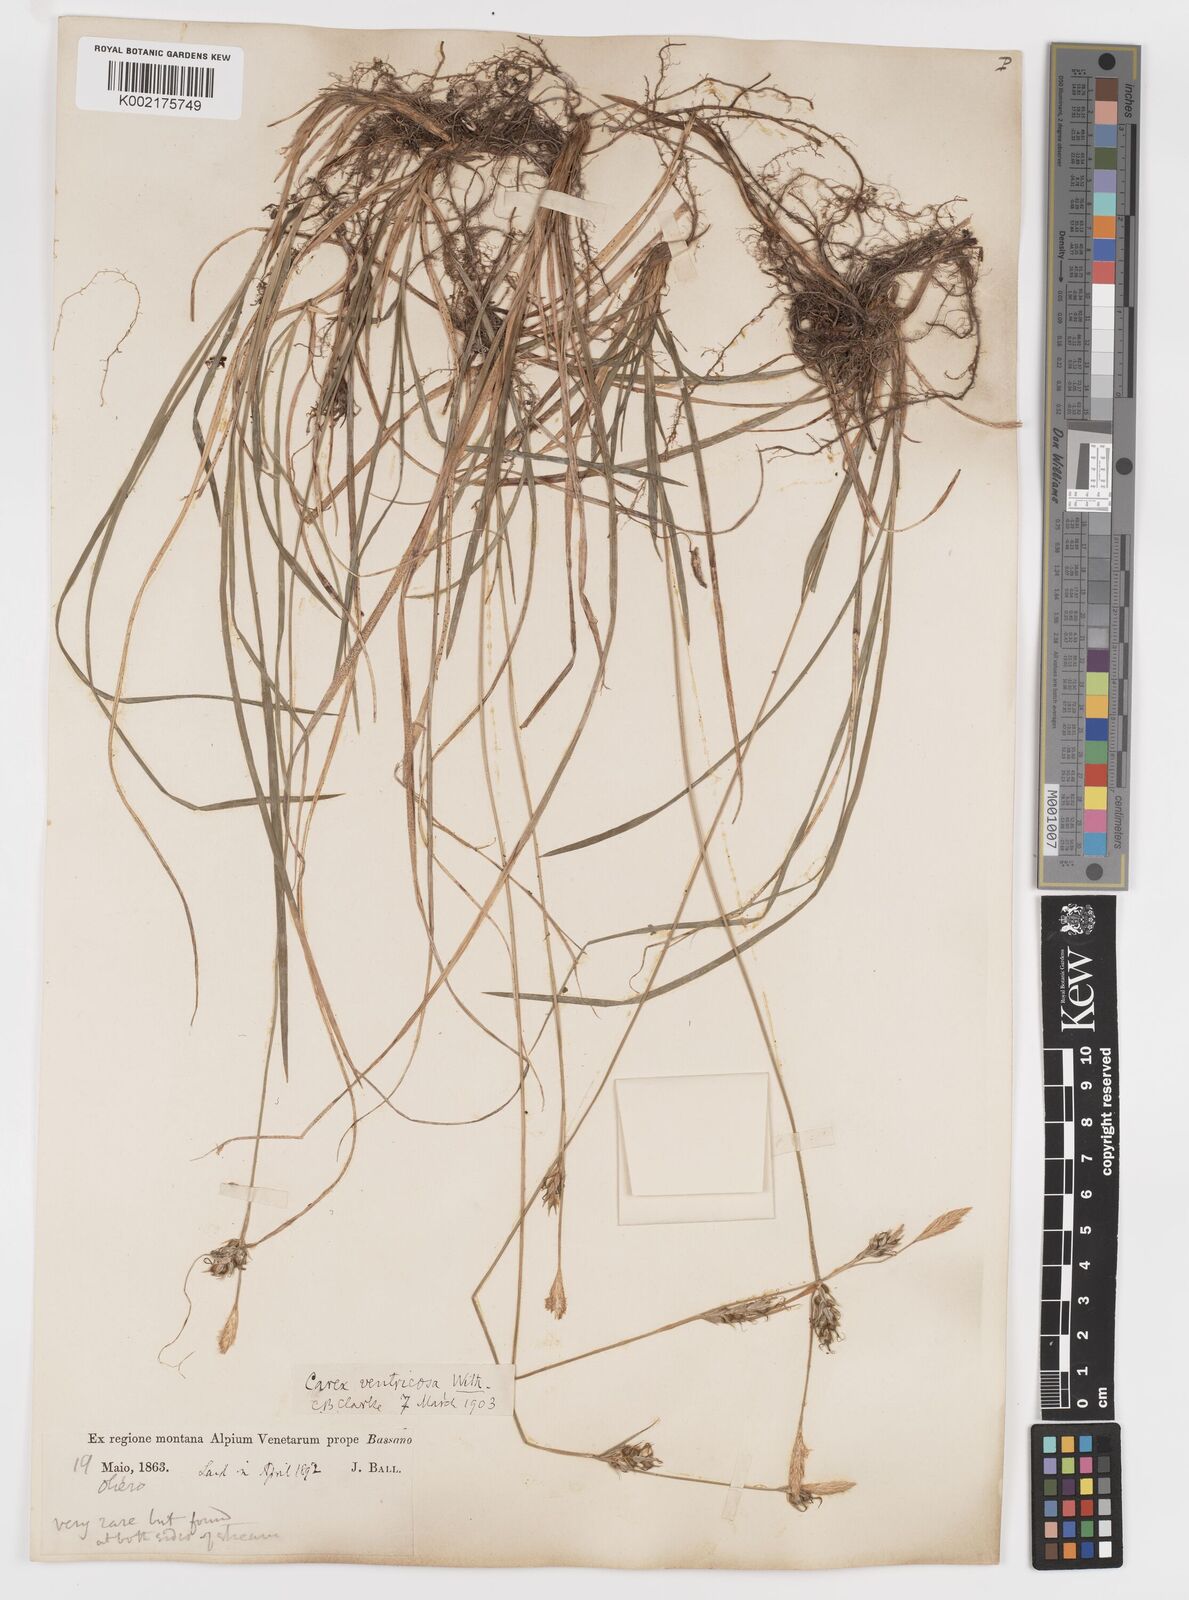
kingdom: Plantae
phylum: Tracheophyta
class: Liliopsida
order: Poales
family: Cyperaceae
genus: Carex
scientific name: Carex
